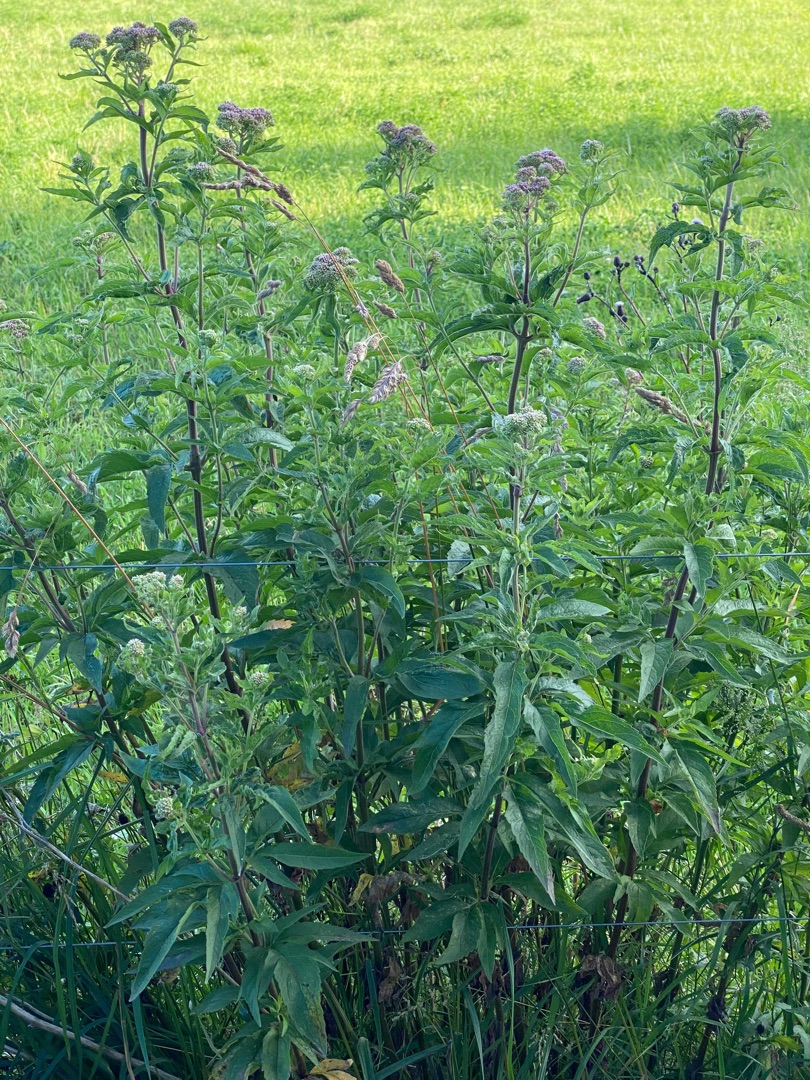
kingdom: Plantae
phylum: Tracheophyta
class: Magnoliopsida
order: Asterales
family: Asteraceae
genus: Eupatorium
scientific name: Eupatorium cannabinum
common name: Hjortetrøst
